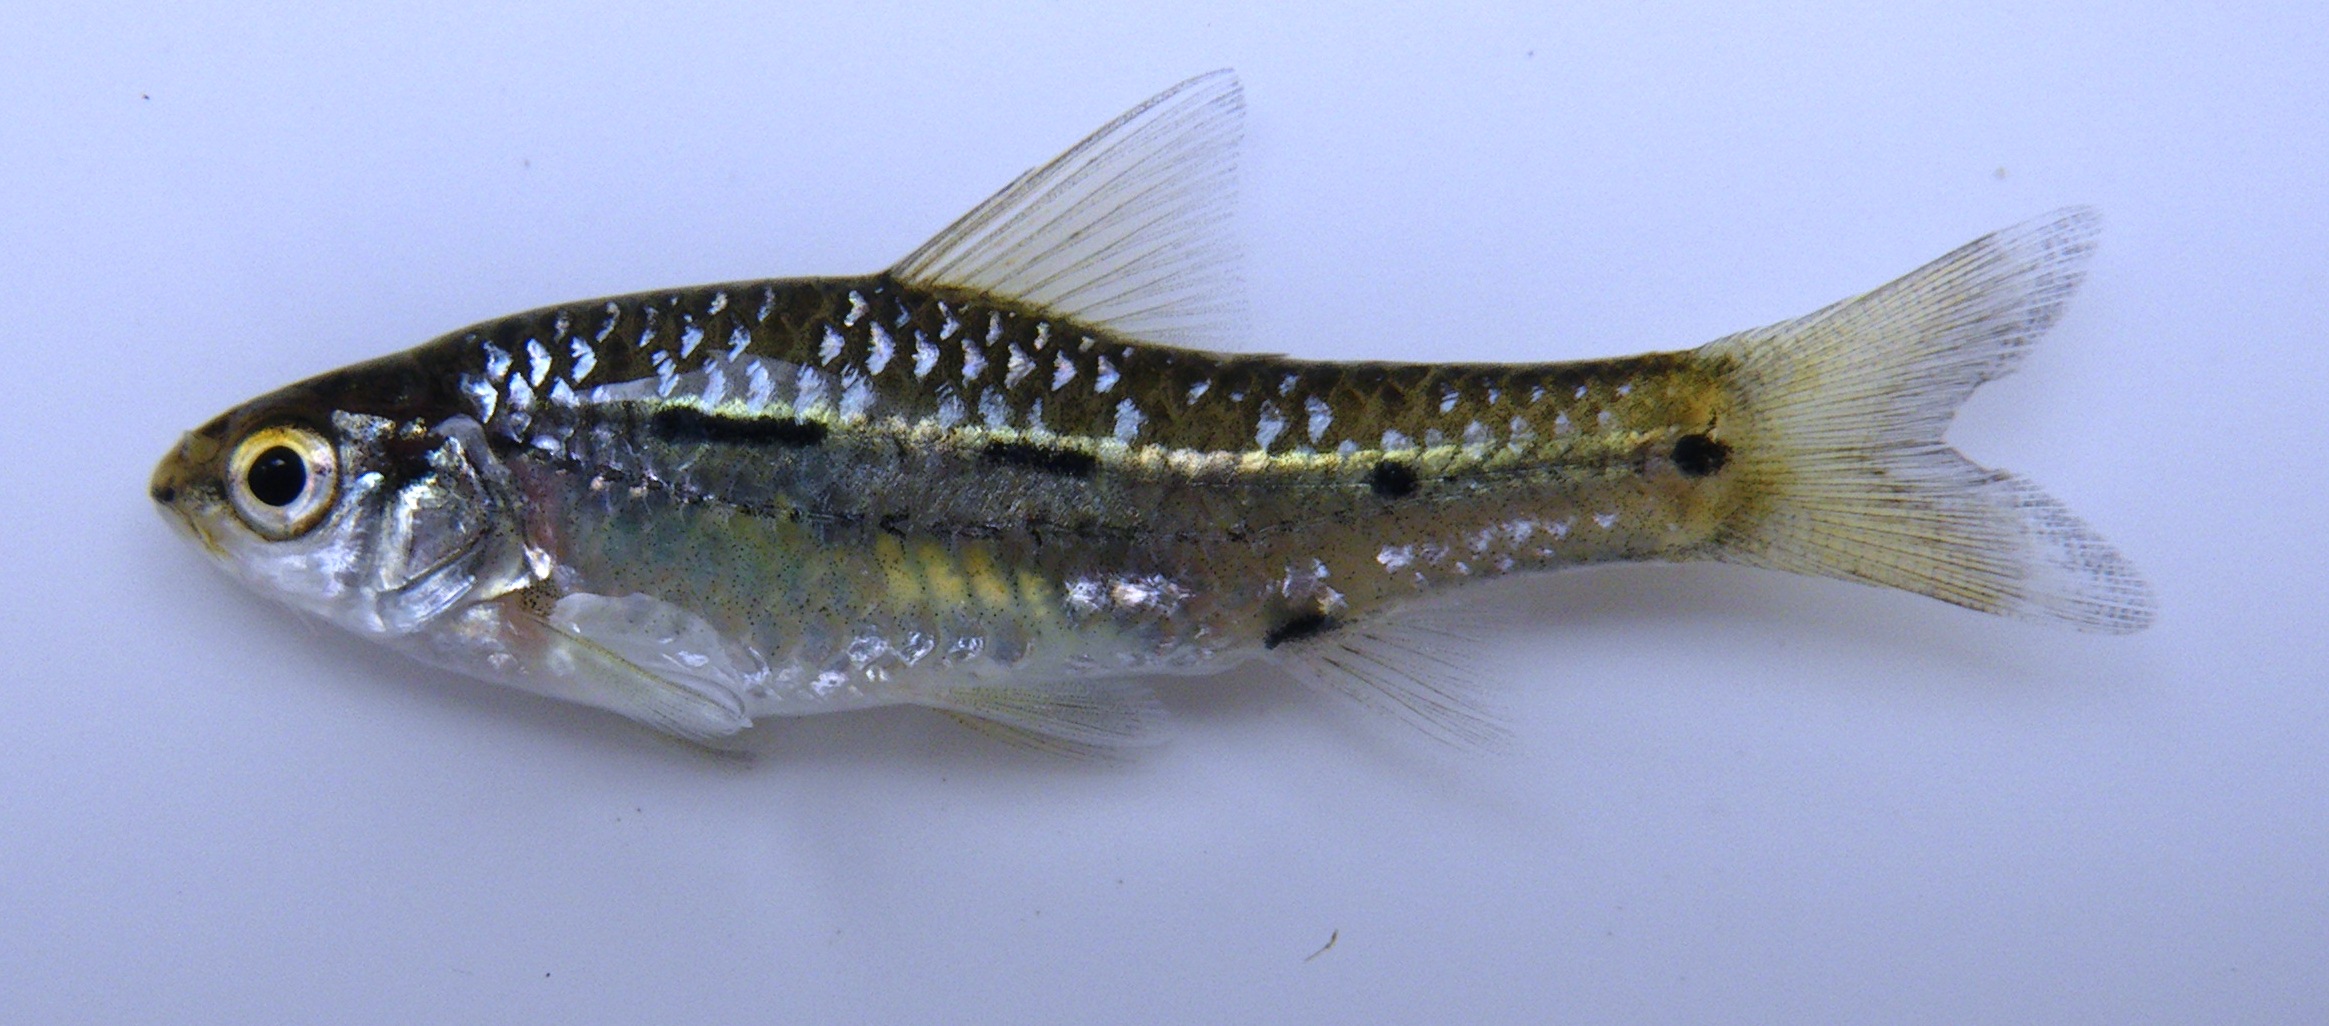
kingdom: Animalia
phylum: Chordata
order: Cypriniformes
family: Cyprinidae
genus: Enteromius
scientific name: Enteromius bifrenatus
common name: Hyphen barb
